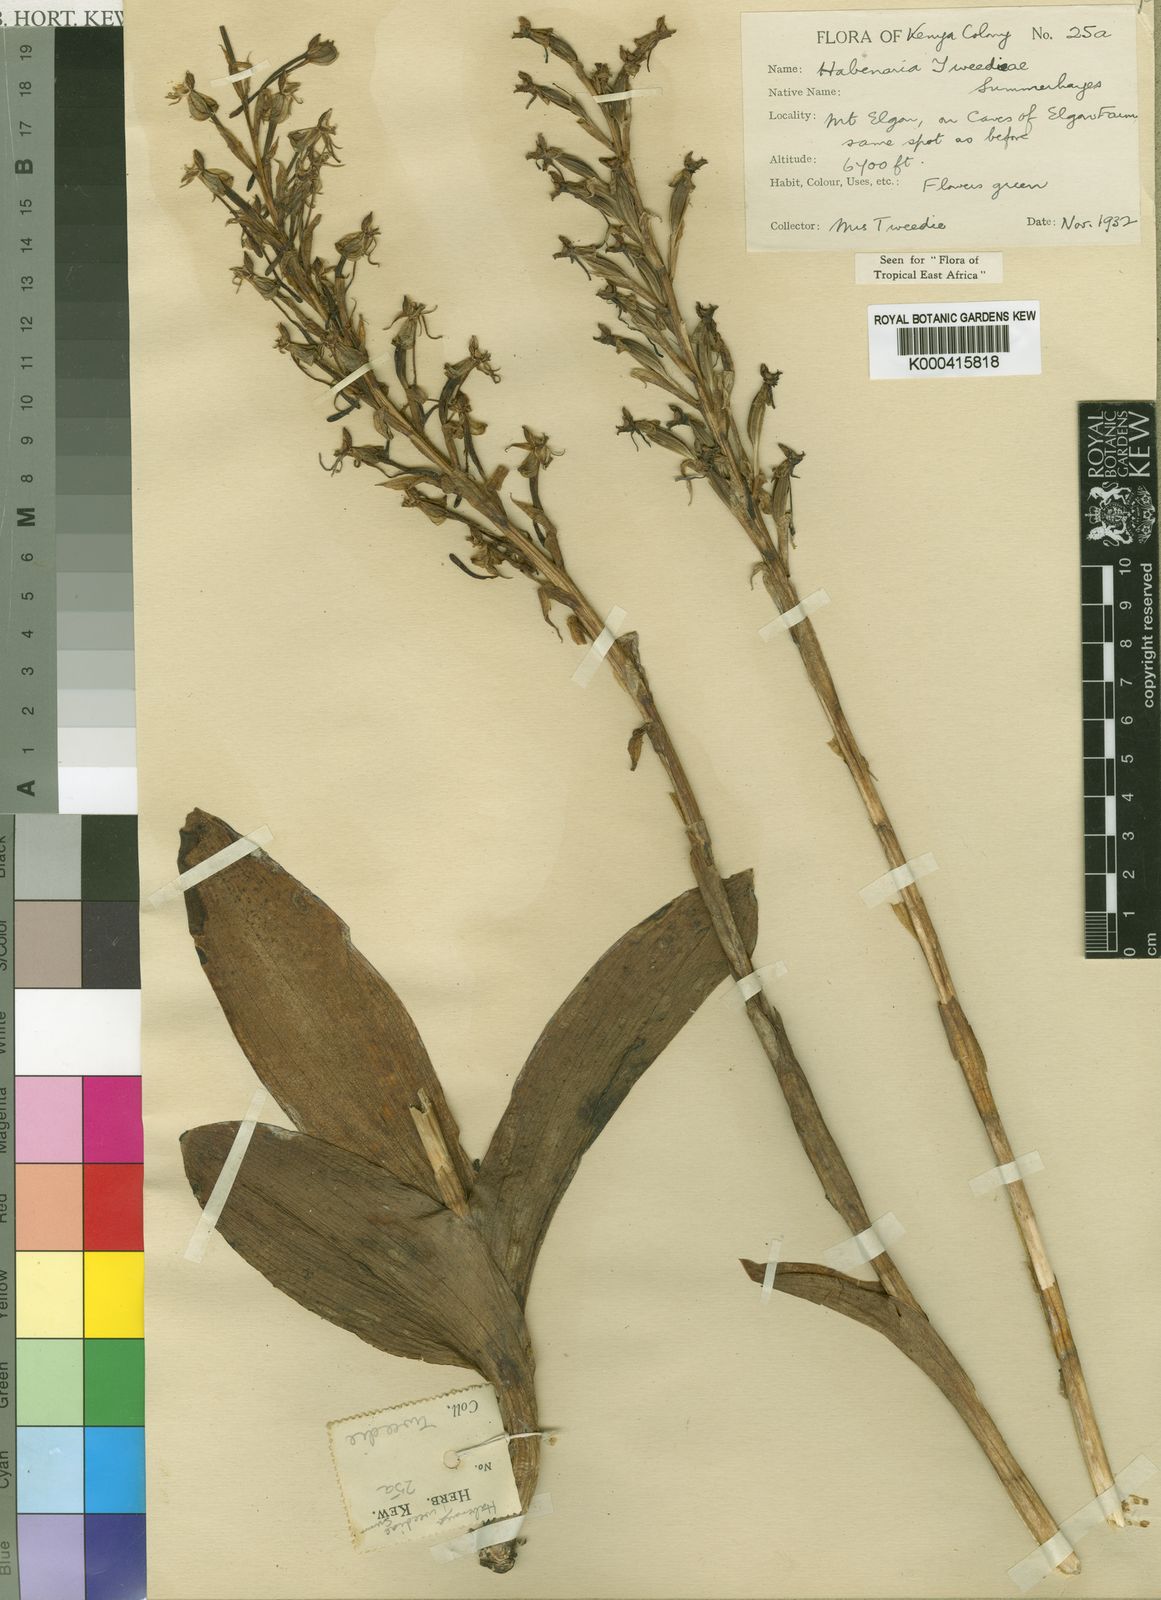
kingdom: Plantae
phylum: Tracheophyta
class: Liliopsida
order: Asparagales
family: Orchidaceae
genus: Habenaria
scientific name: Habenaria tweedieae
